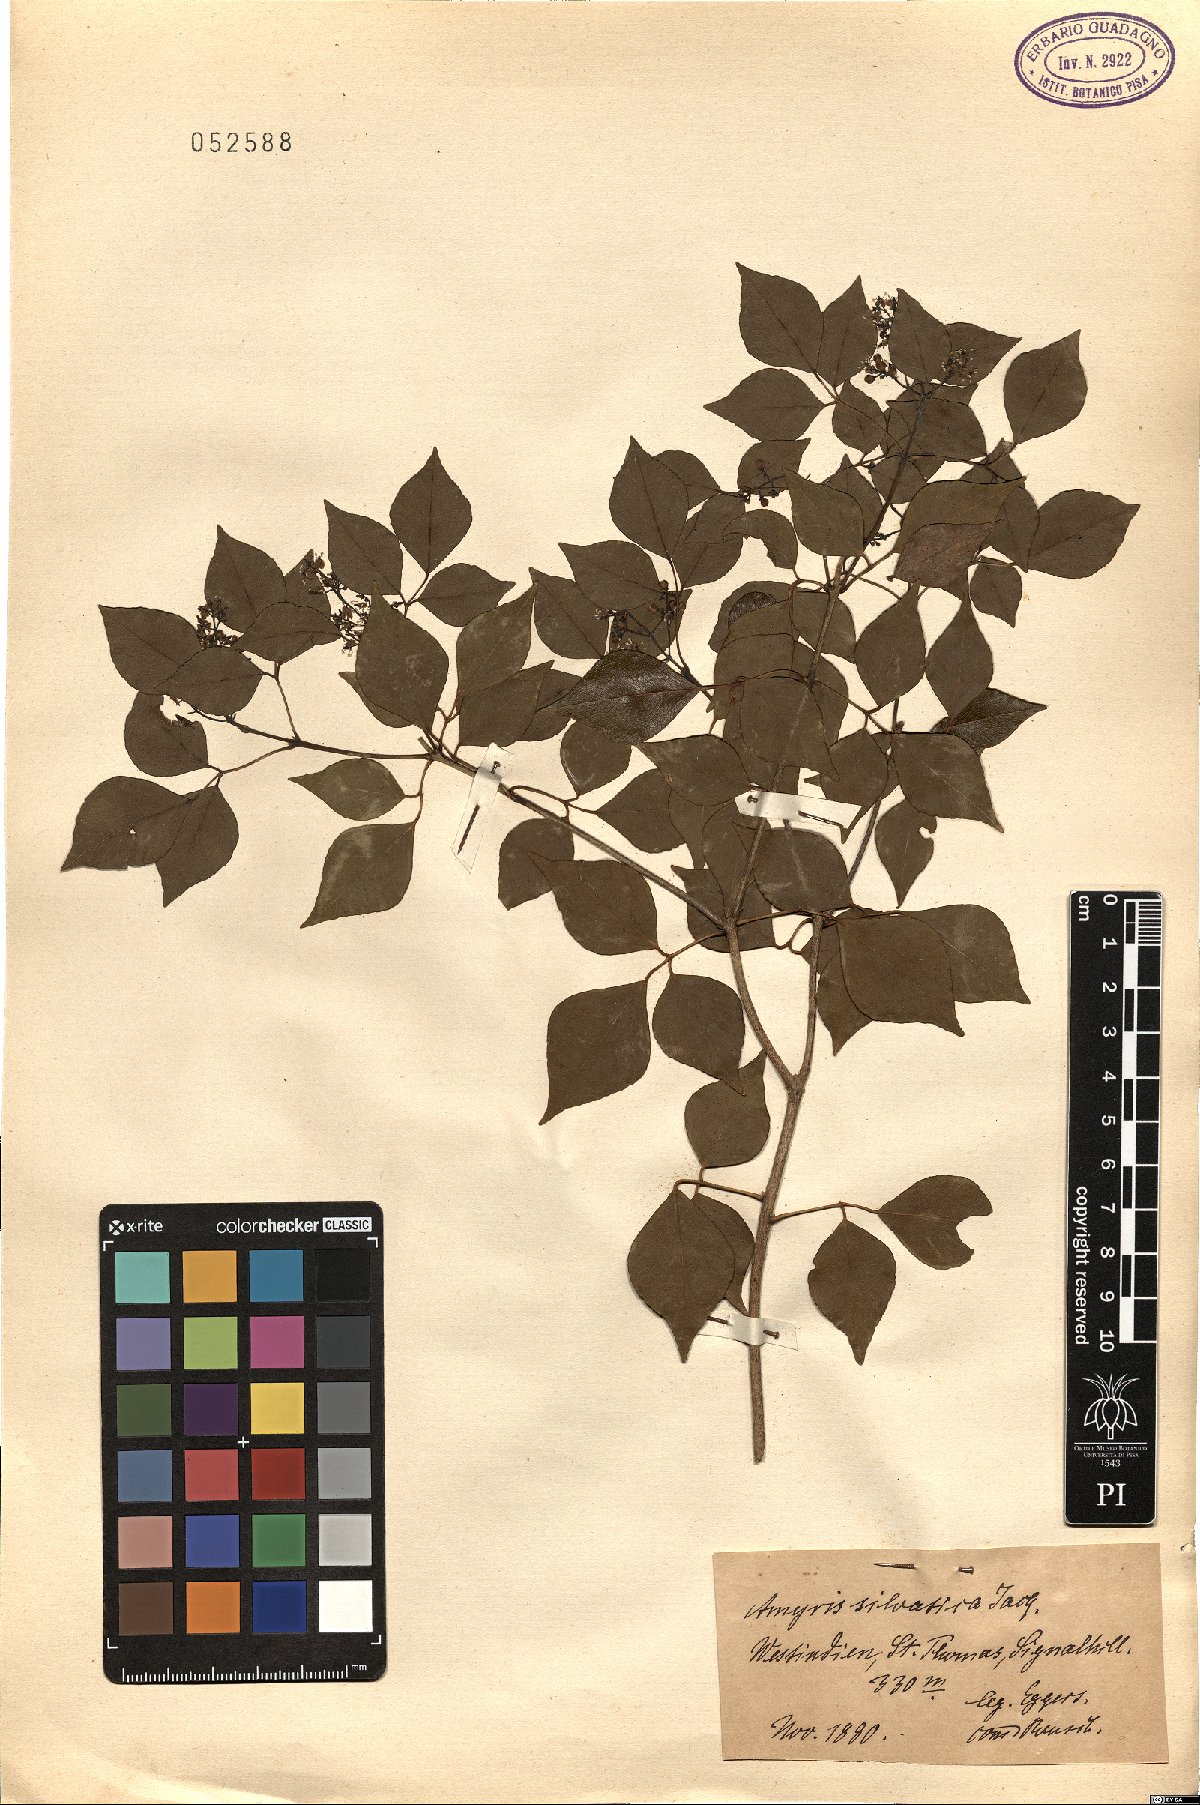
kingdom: Plantae
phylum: Tracheophyta
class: Magnoliopsida
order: Sapindales
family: Rutaceae
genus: Amyris
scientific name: Amyris sylvatica
